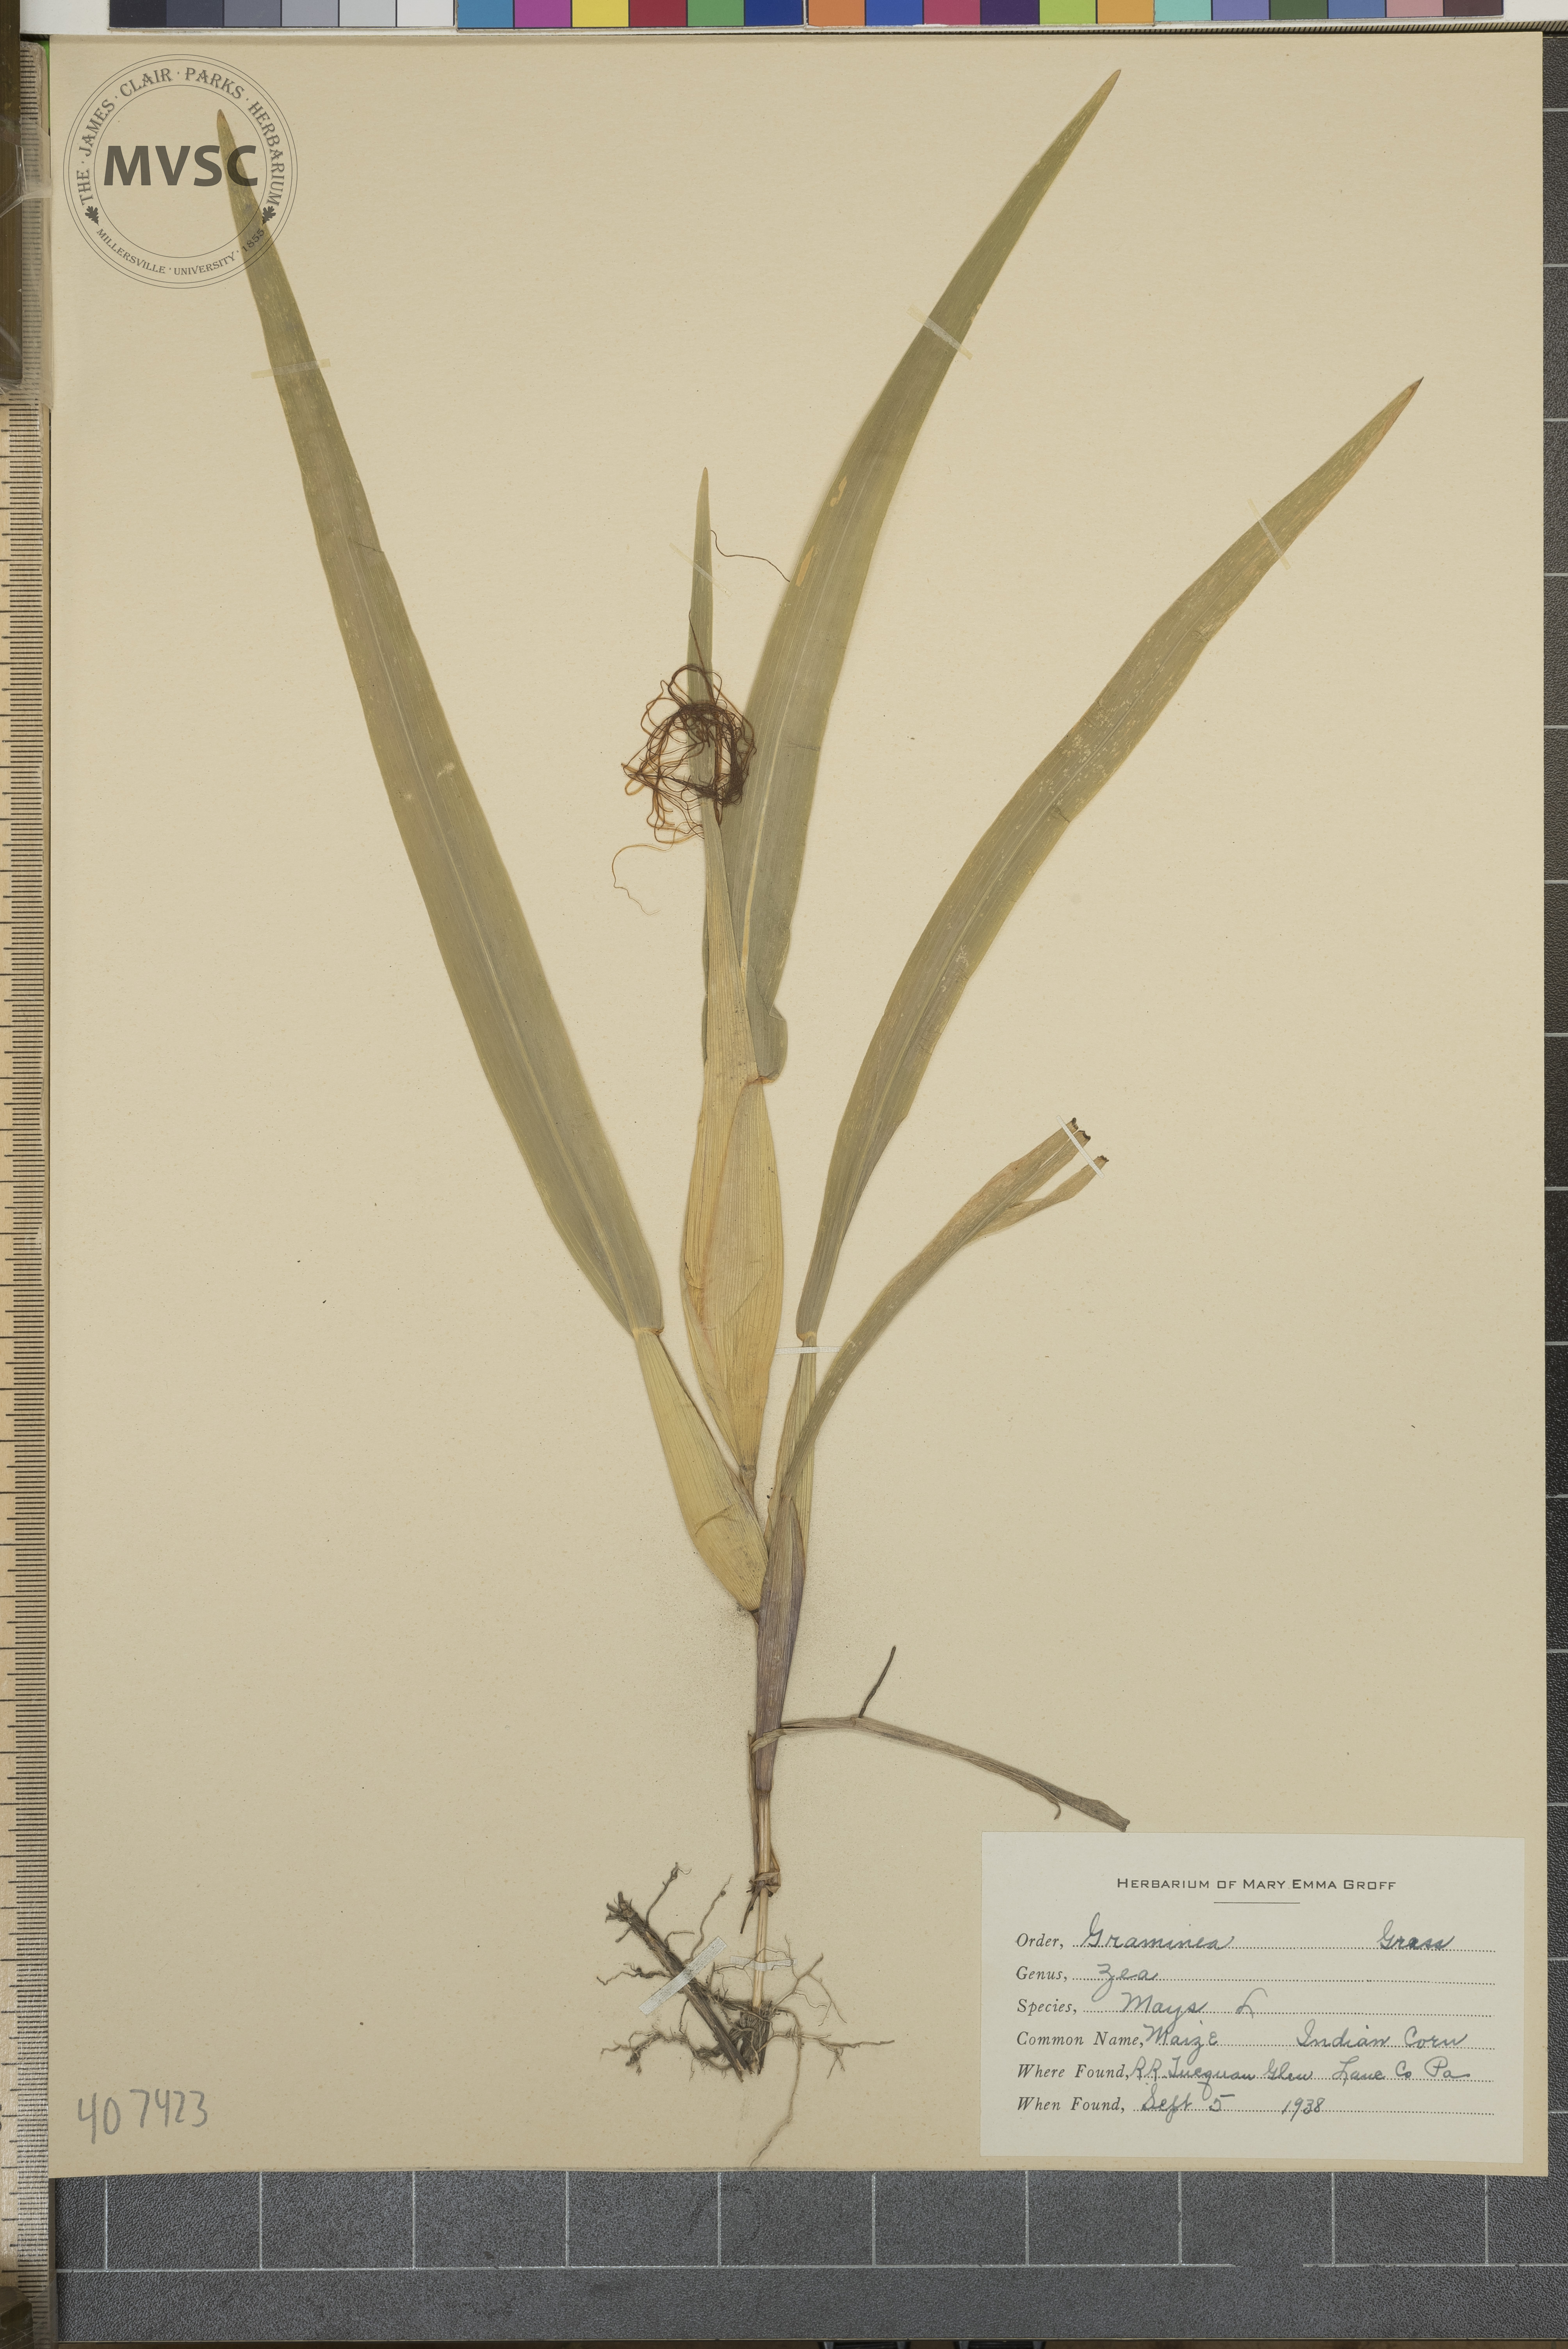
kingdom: Plantae
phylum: Tracheophyta
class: Liliopsida
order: Poales
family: Poaceae
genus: Zea
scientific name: Zea mays
